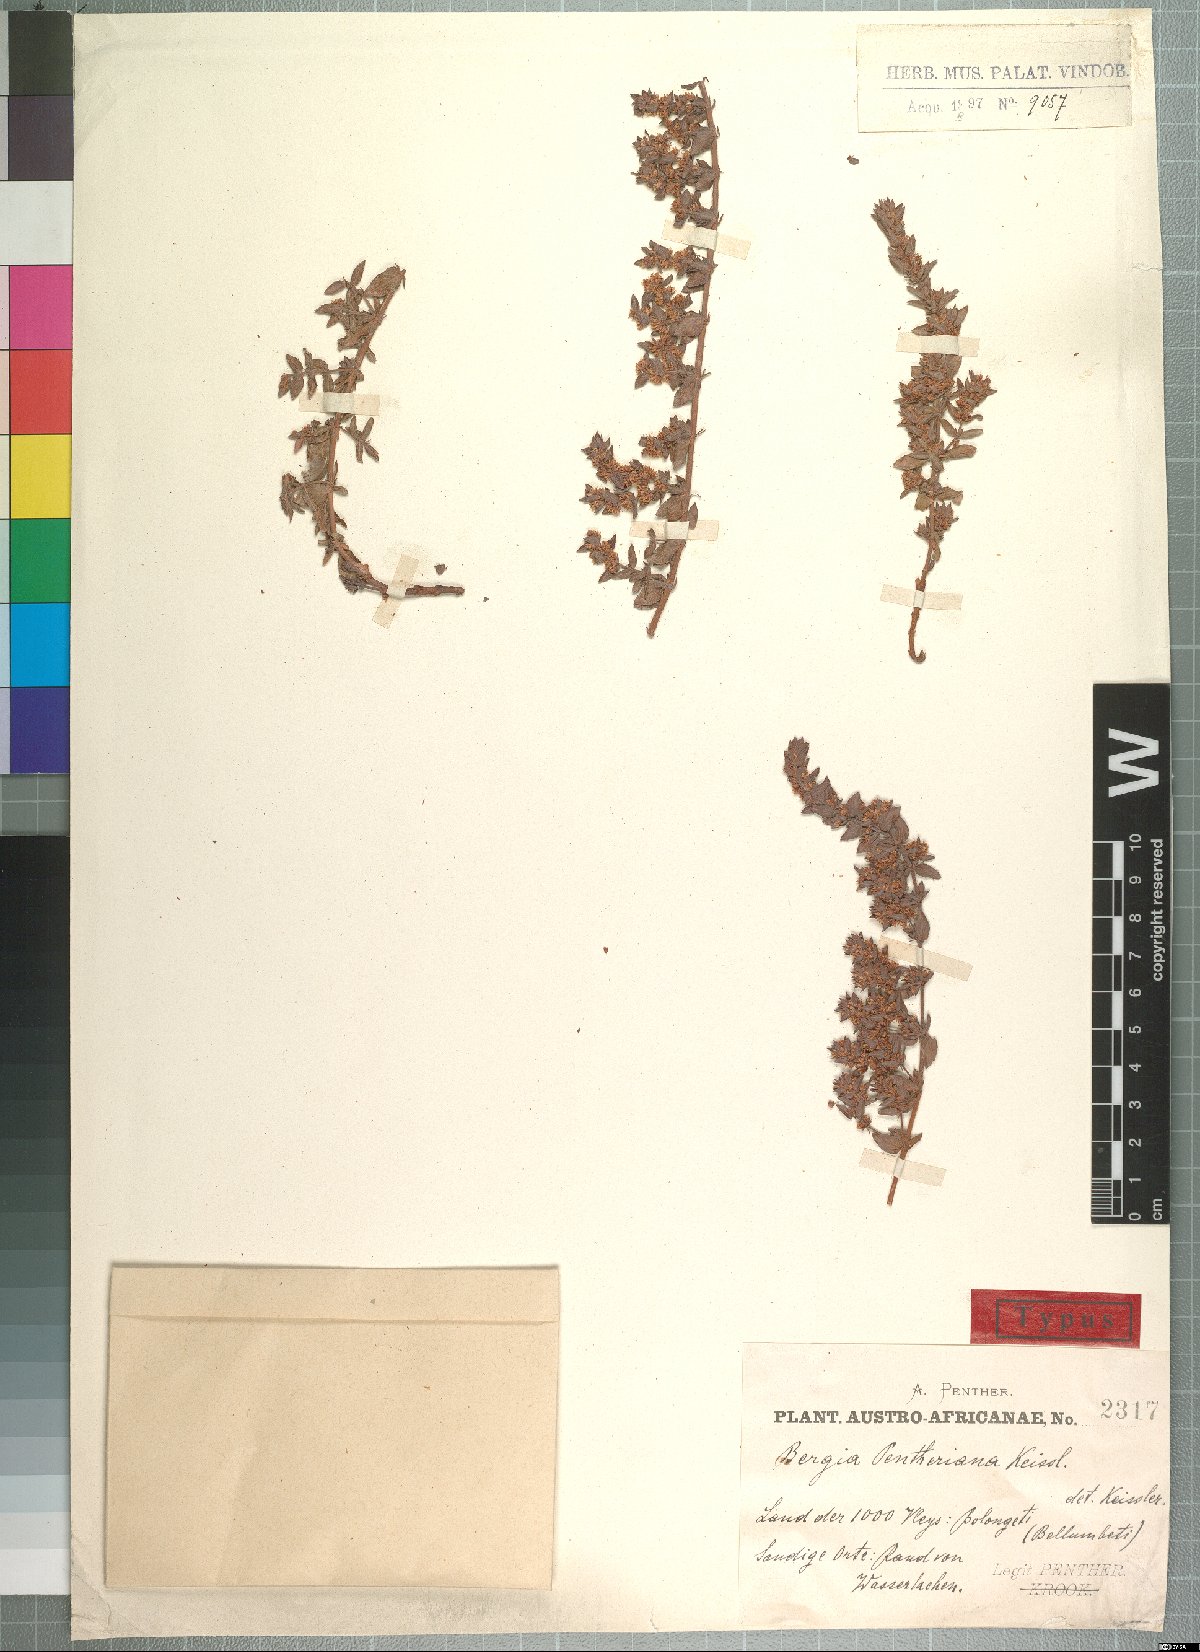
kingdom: Plantae
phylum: Tracheophyta
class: Magnoliopsida
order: Malpighiales
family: Elatinaceae
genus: Bergia
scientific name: Bergia pentheriana
